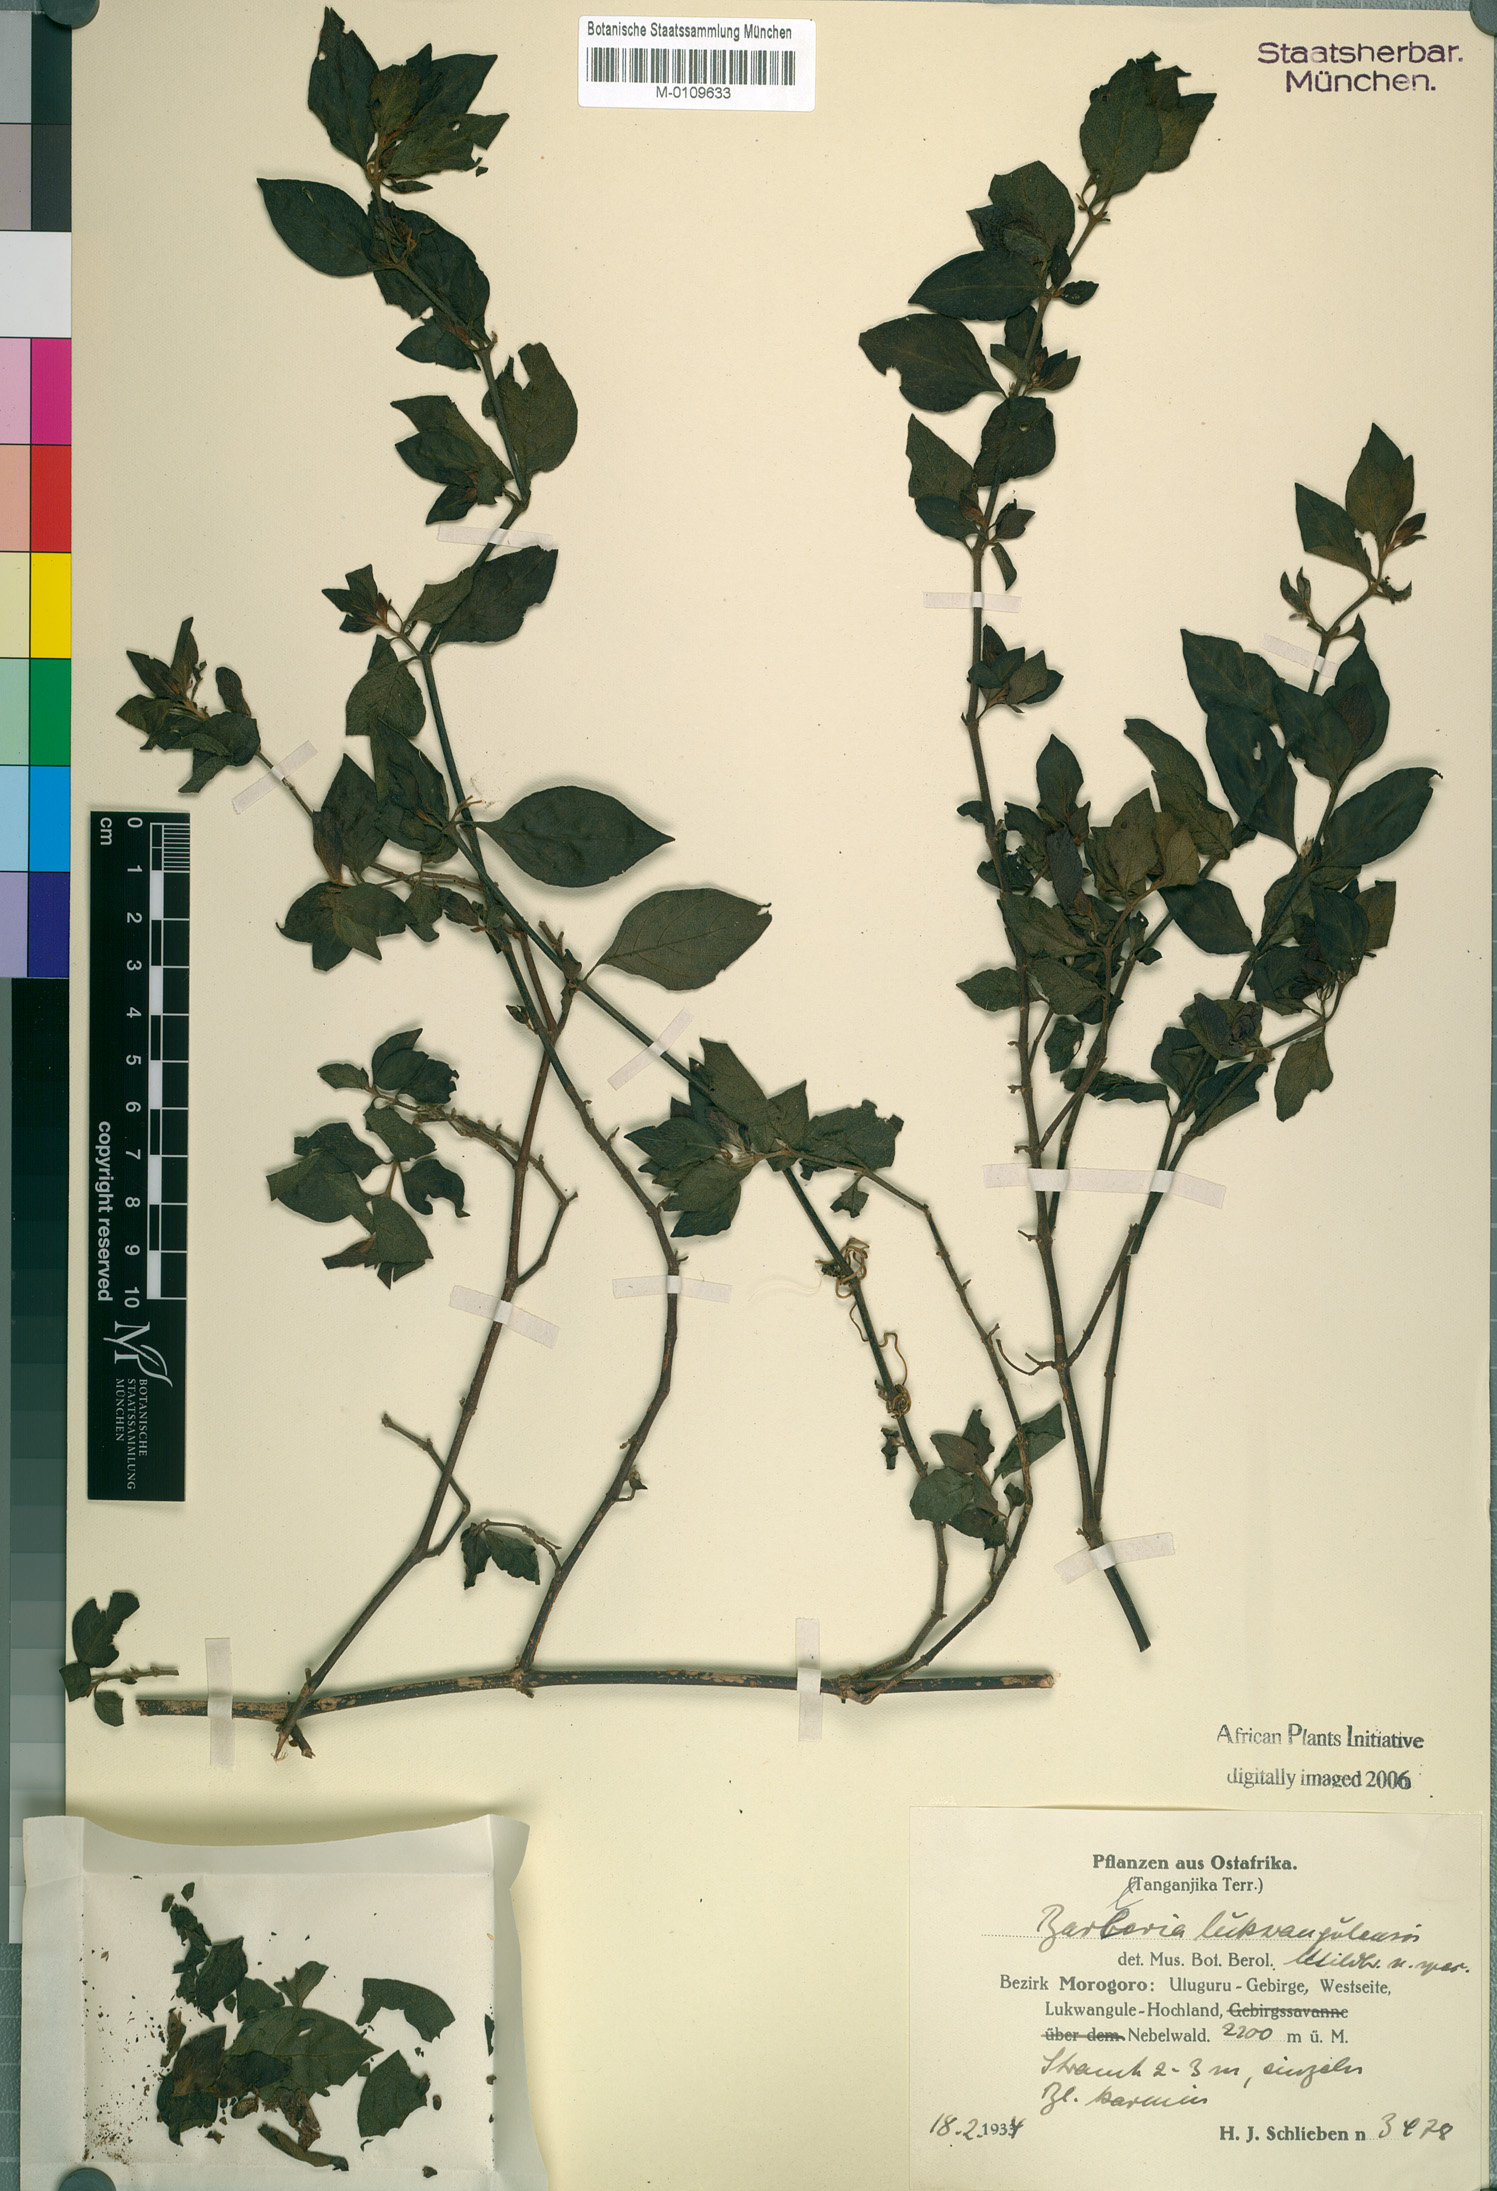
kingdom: Plantae
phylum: Tracheophyta
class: Magnoliopsida
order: Lamiales
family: Acanthaceae
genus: Barleria
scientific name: Barleria lukwangulensis
